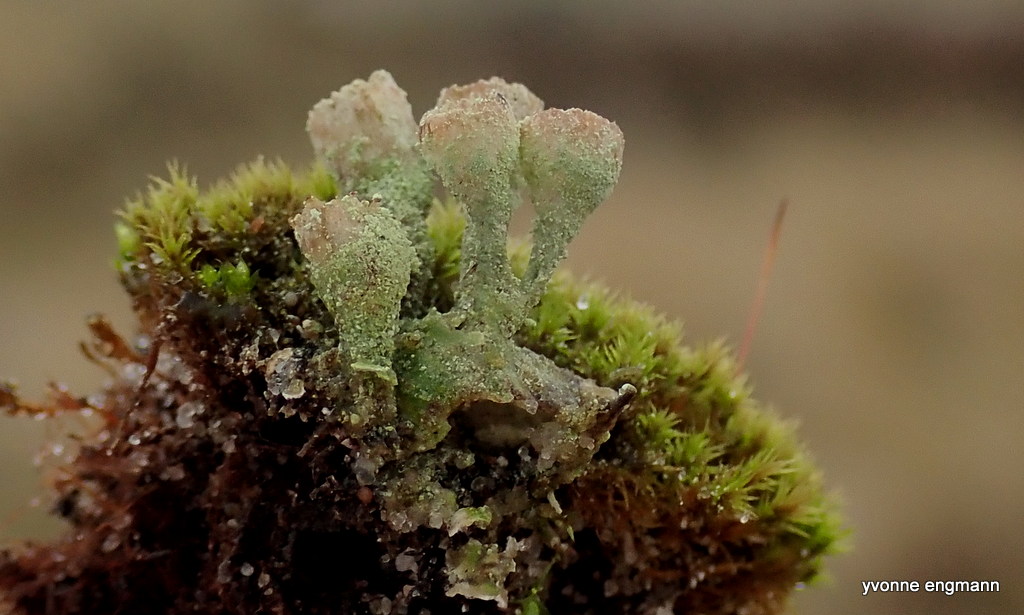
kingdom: Fungi
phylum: Ascomycota
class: Lecanoromycetes
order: Lecanorales
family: Cladoniaceae
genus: Cladonia
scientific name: Cladonia humilis
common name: lav bægerlav
